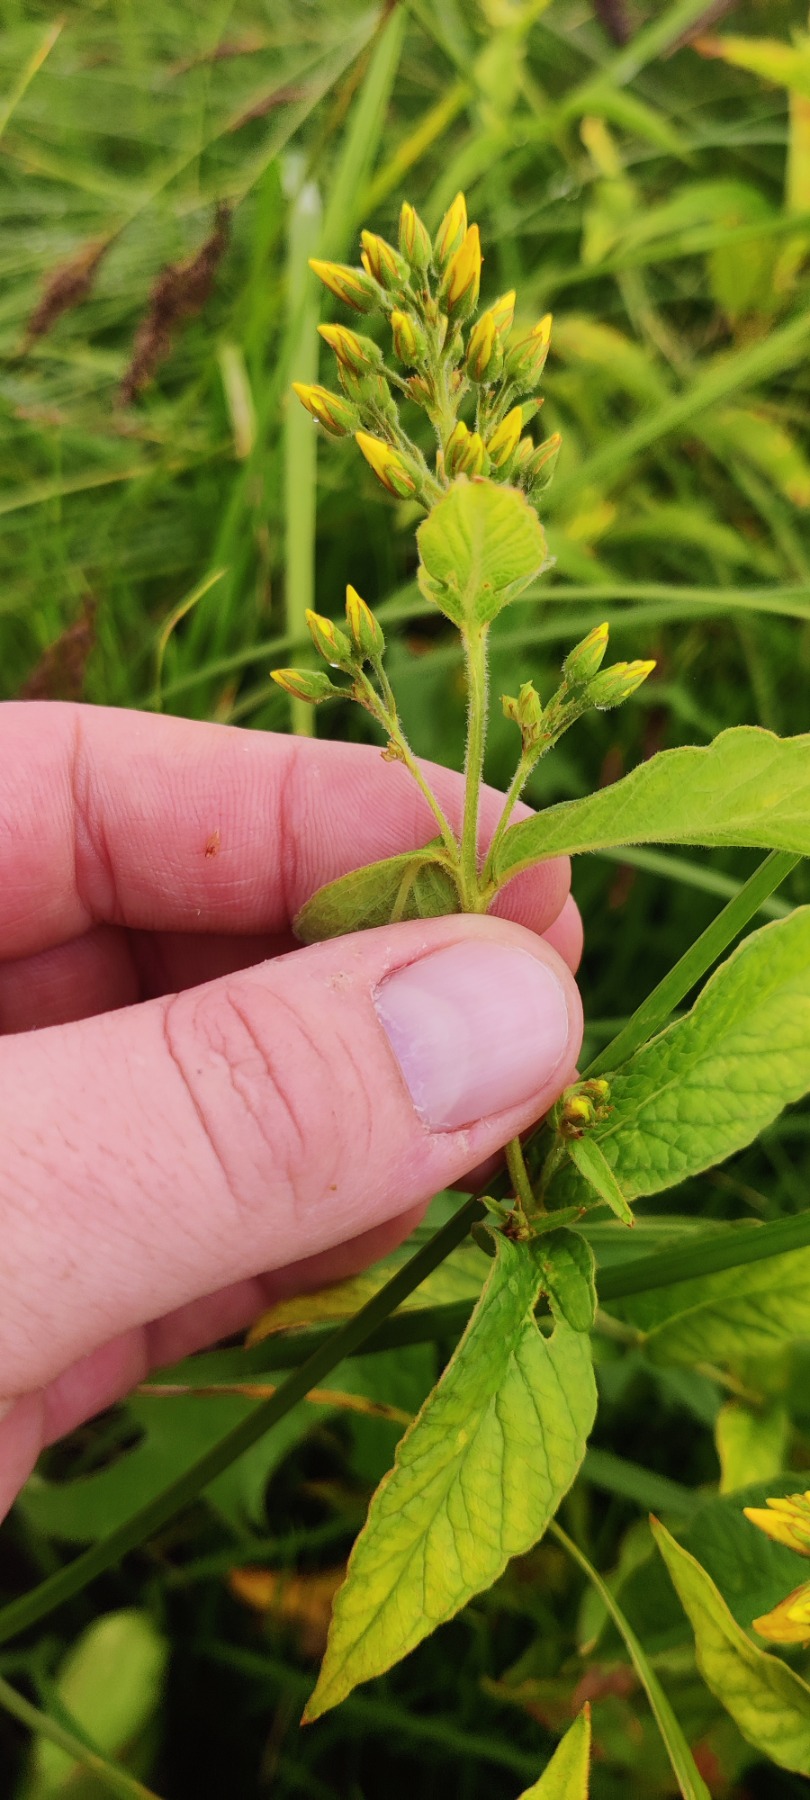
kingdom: Plantae
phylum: Tracheophyta
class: Magnoliopsida
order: Ericales
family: Primulaceae
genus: Lysimachia
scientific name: Lysimachia vulgaris
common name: Almindelig fredløs
